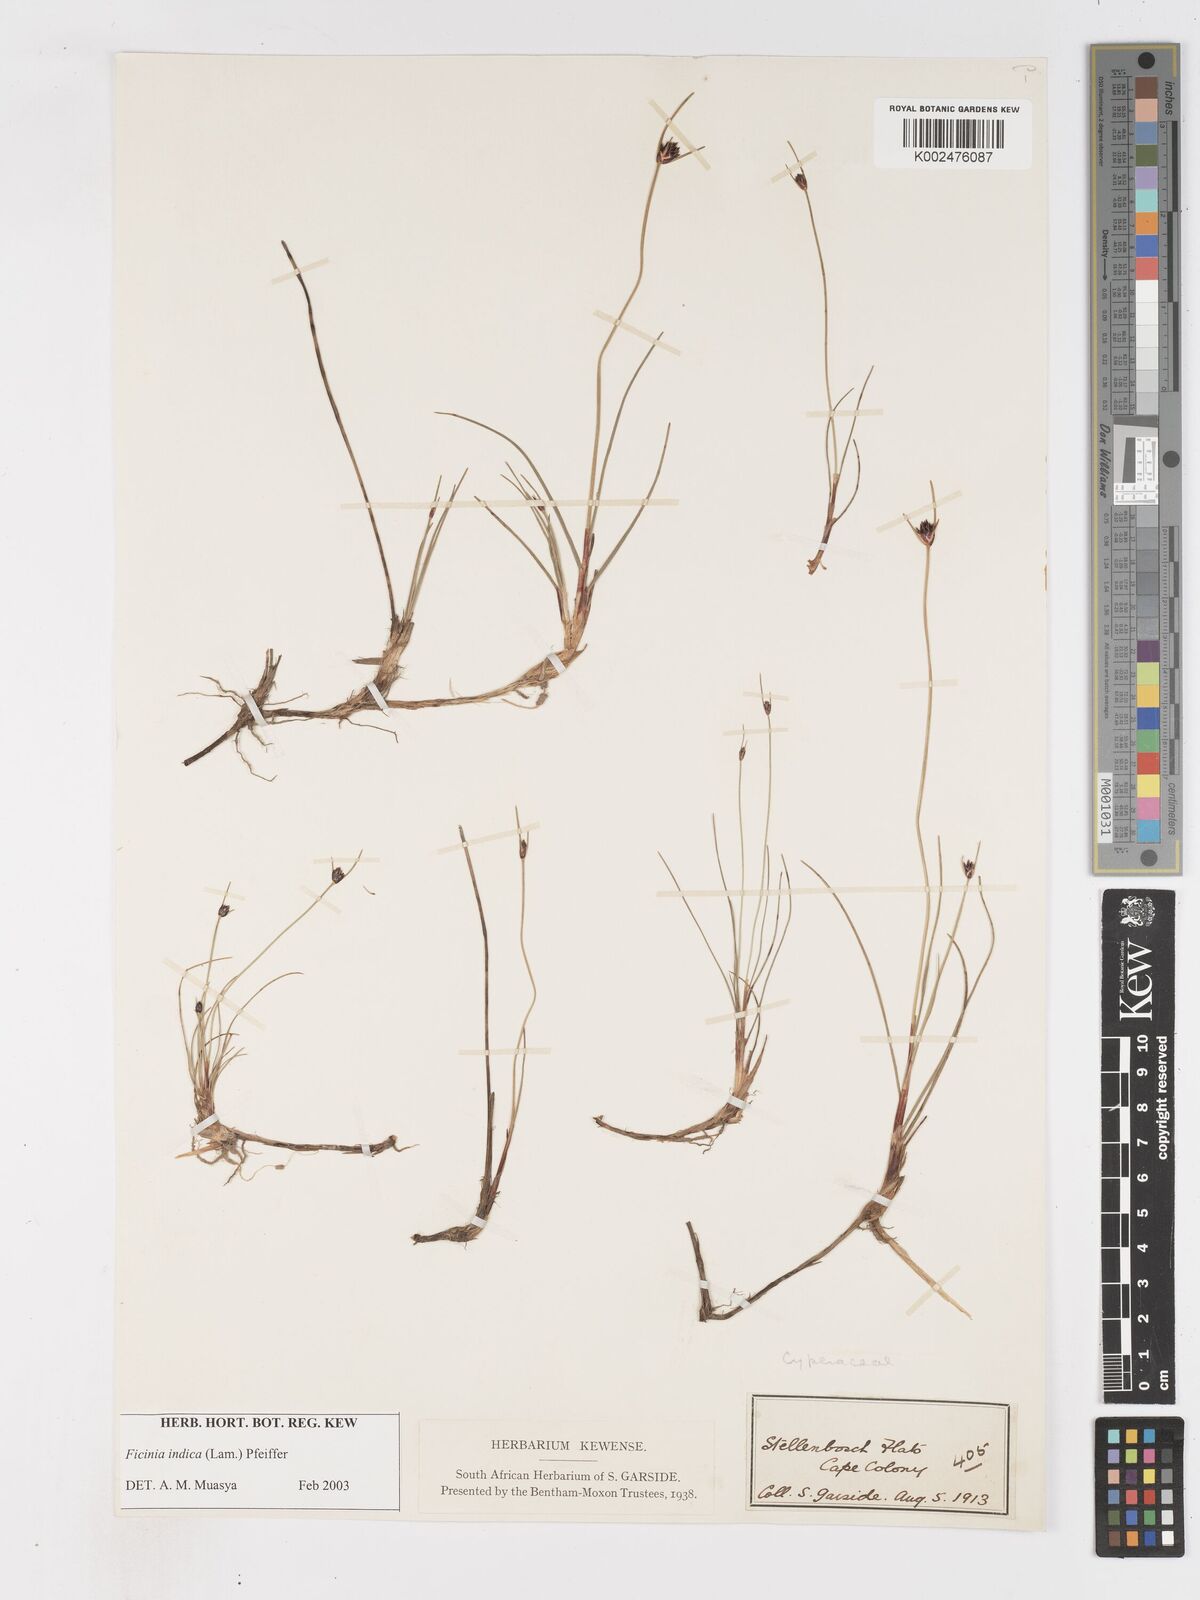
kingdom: Plantae
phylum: Tracheophyta
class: Liliopsida
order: Poales
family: Cyperaceae
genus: Ficinia
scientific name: Ficinia indica
